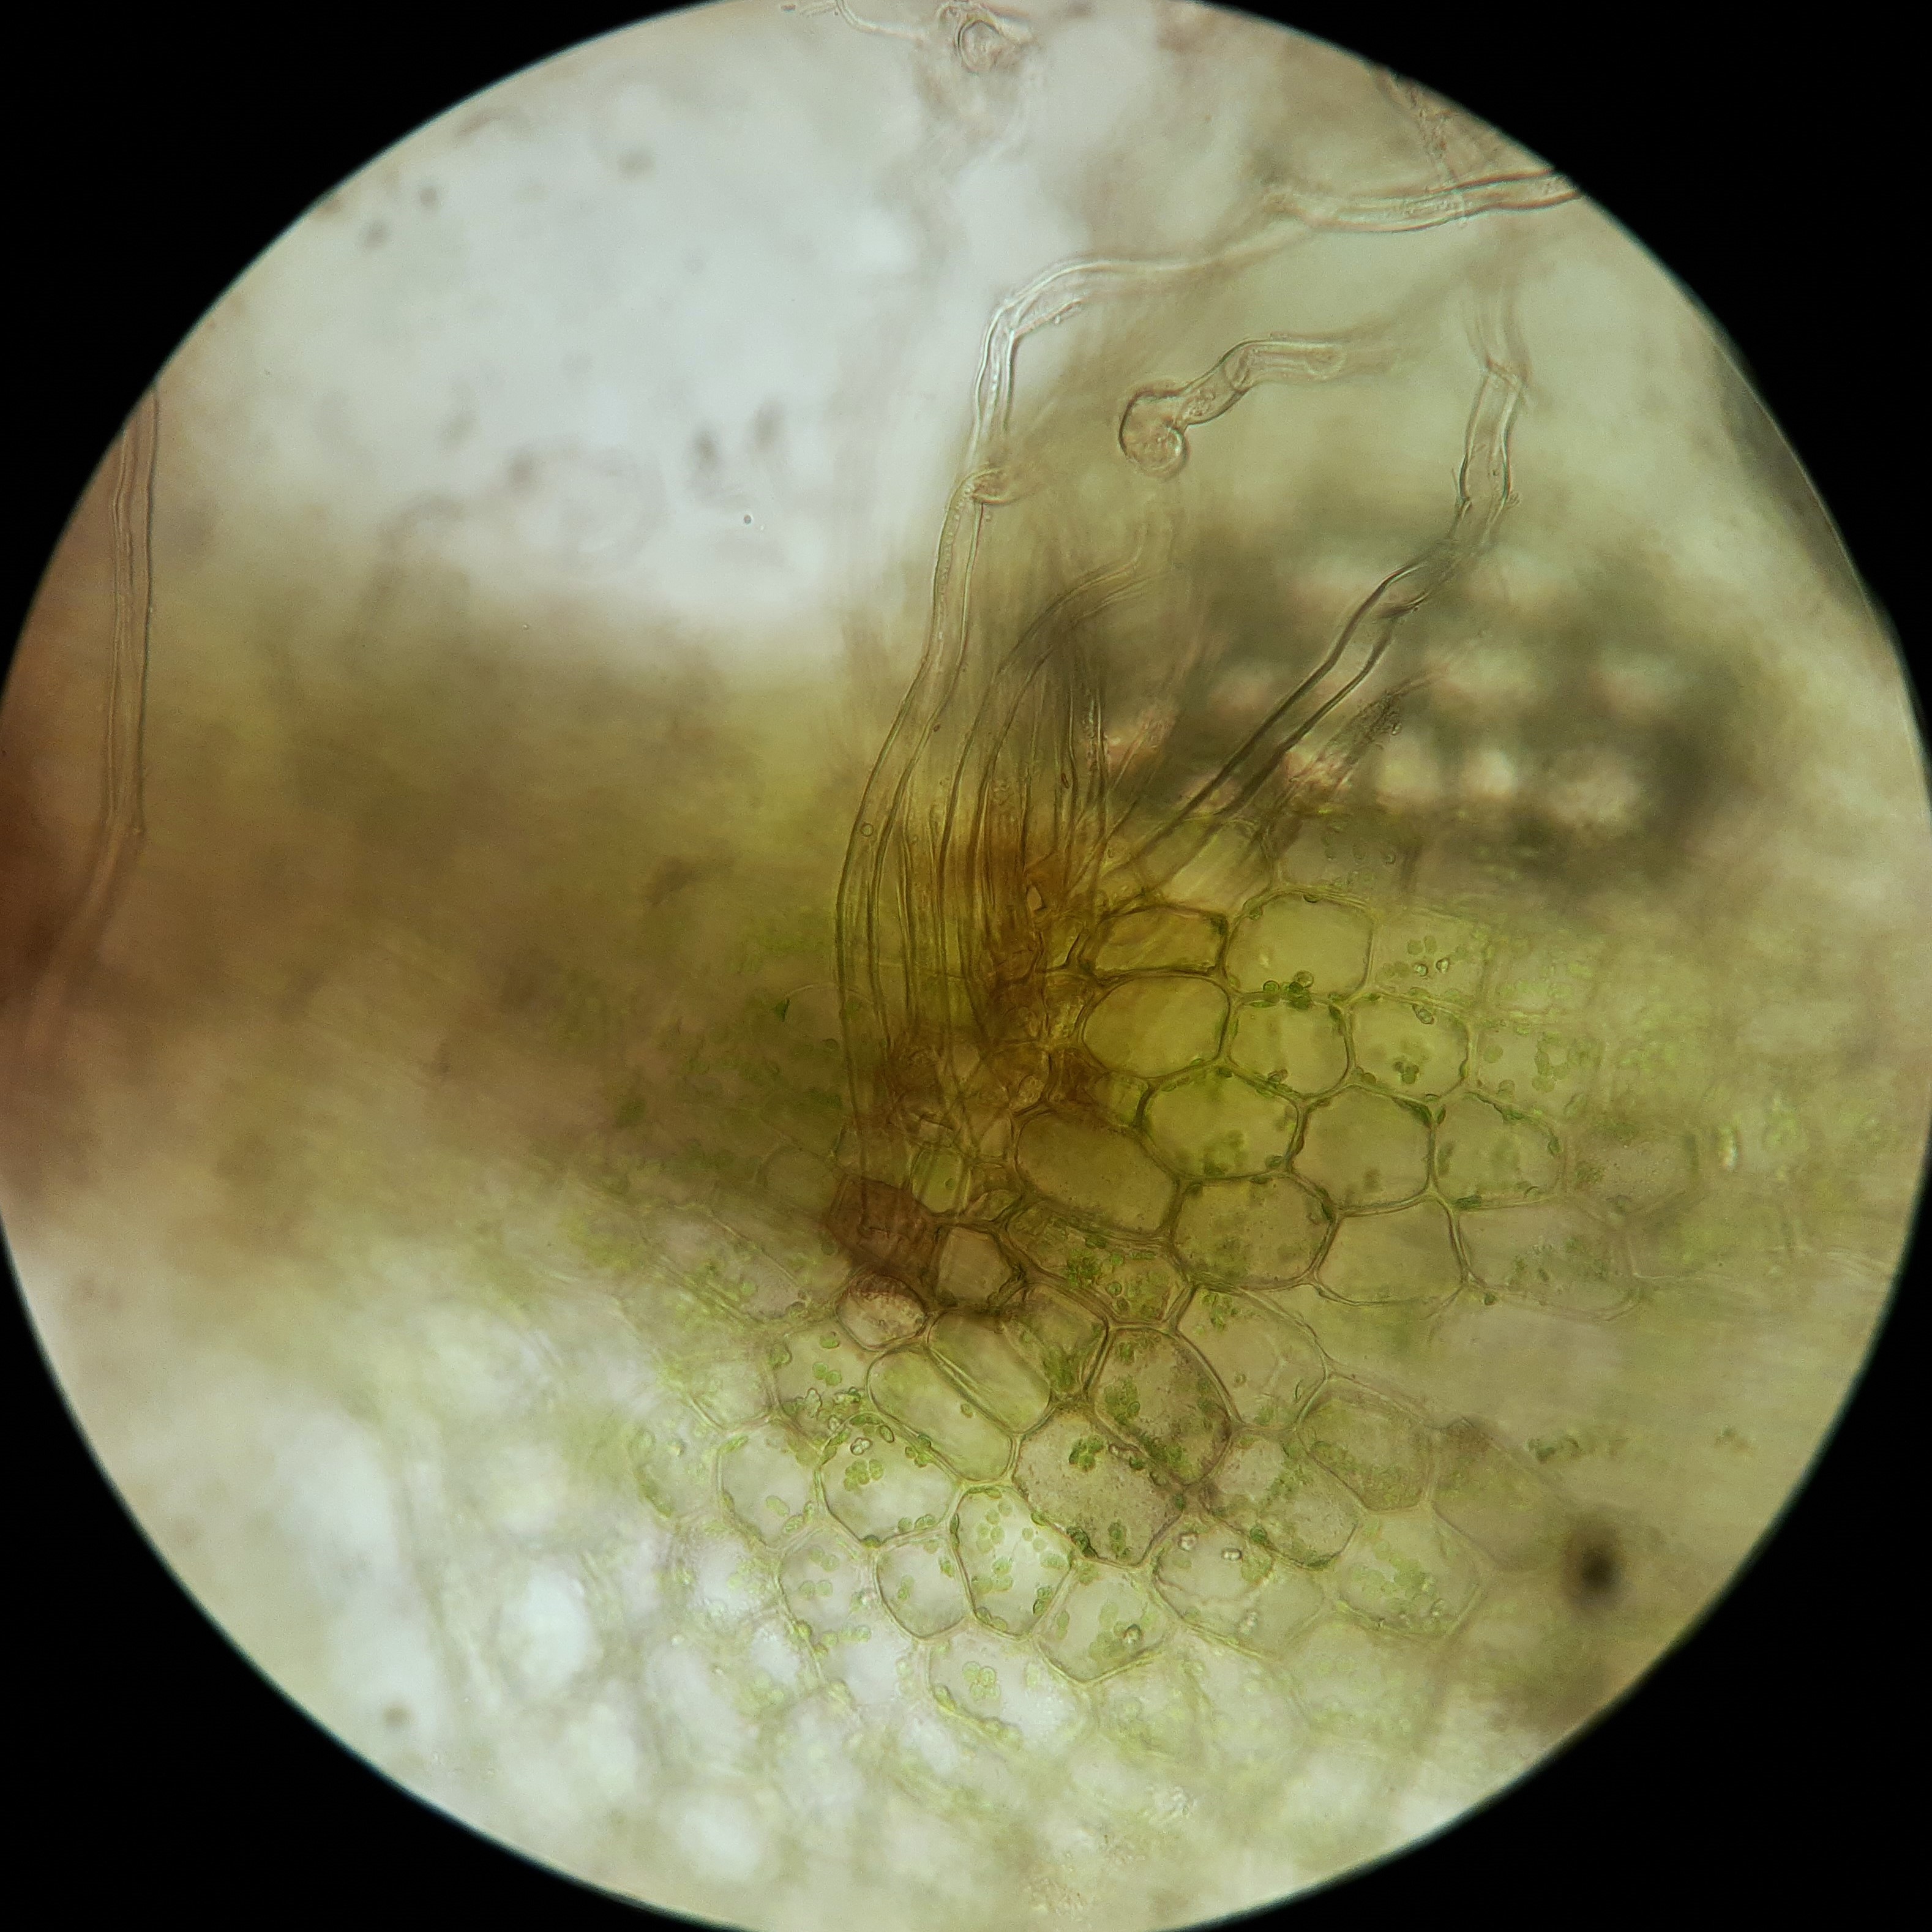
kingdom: Plantae
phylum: Marchantiophyta
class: Jungermanniopsida
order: Jungermanniales
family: Calypogeiaceae
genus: Calypogeia
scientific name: Calypogeia neesiana
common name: Tørve-sækmos
